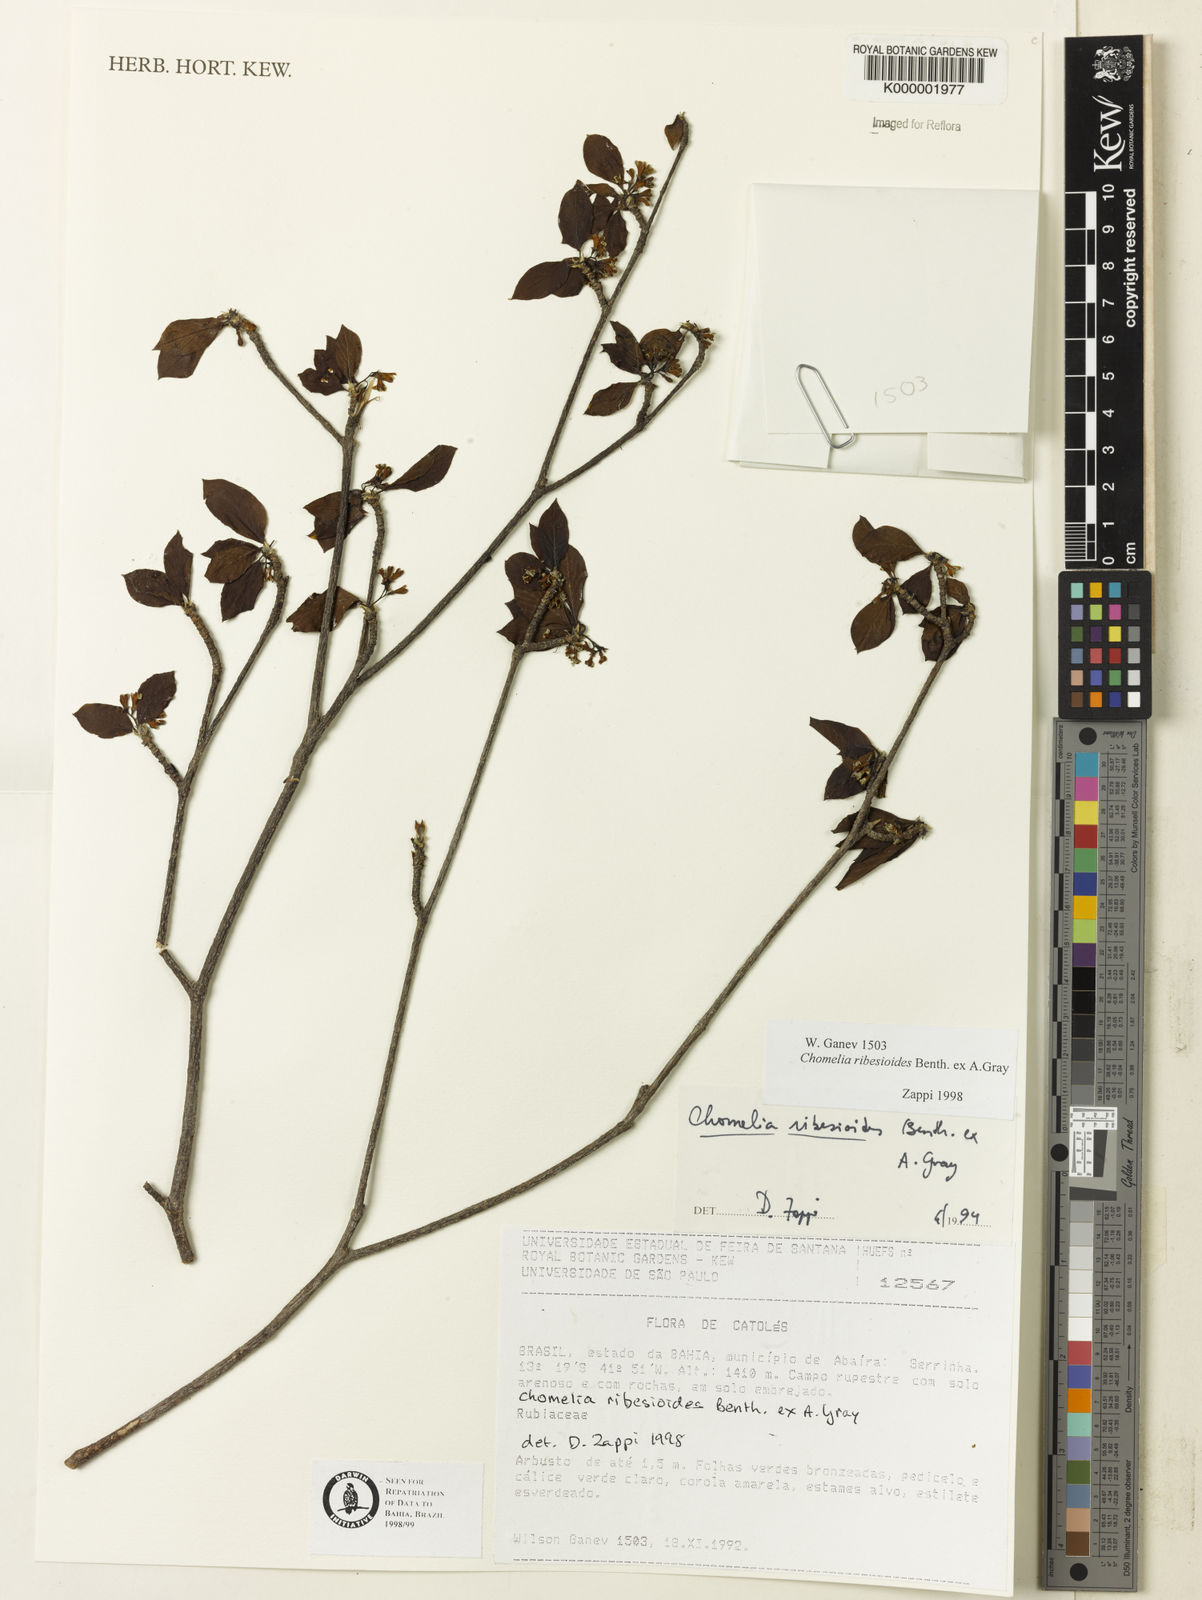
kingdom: Plantae
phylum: Tracheophyta
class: Magnoliopsida
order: Gentianales
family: Rubiaceae
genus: Chomelia
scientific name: Chomelia ribesioides
